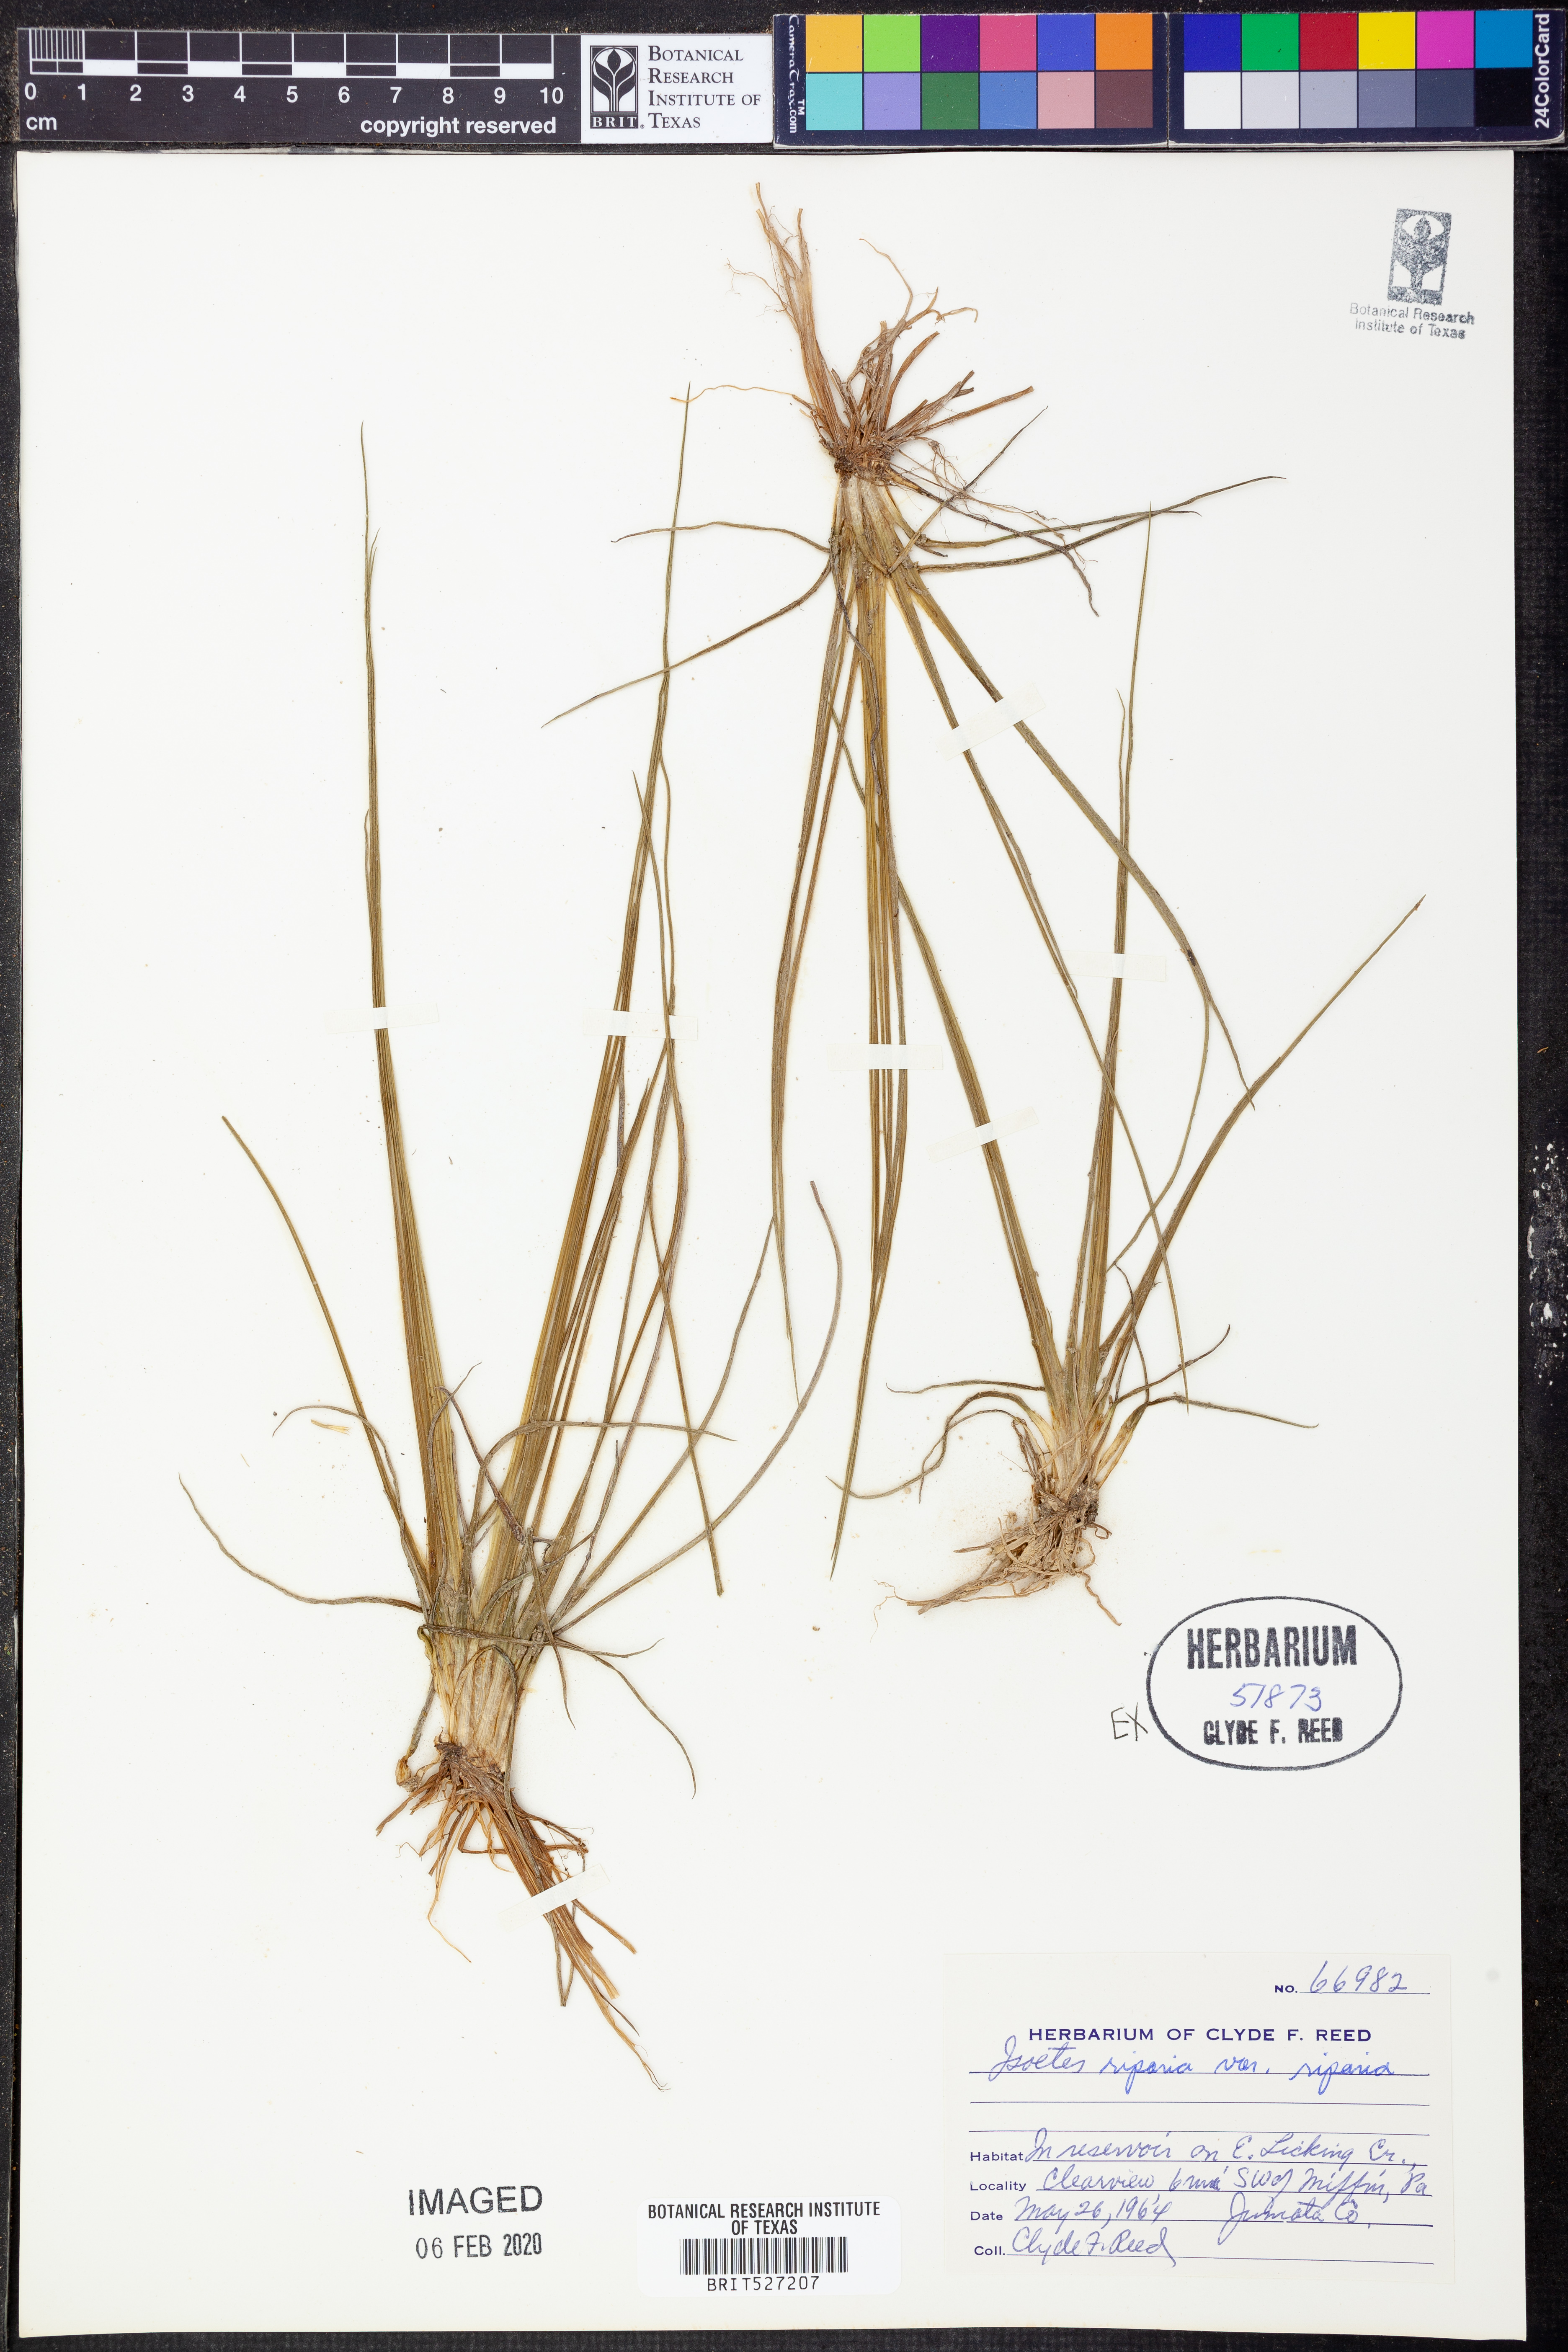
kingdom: Plantae
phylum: Tracheophyta
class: Lycopodiopsida
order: Isoetales
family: Isoetaceae
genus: Isoetes
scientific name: Isoetes riparia
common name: Riverbank quillwort
